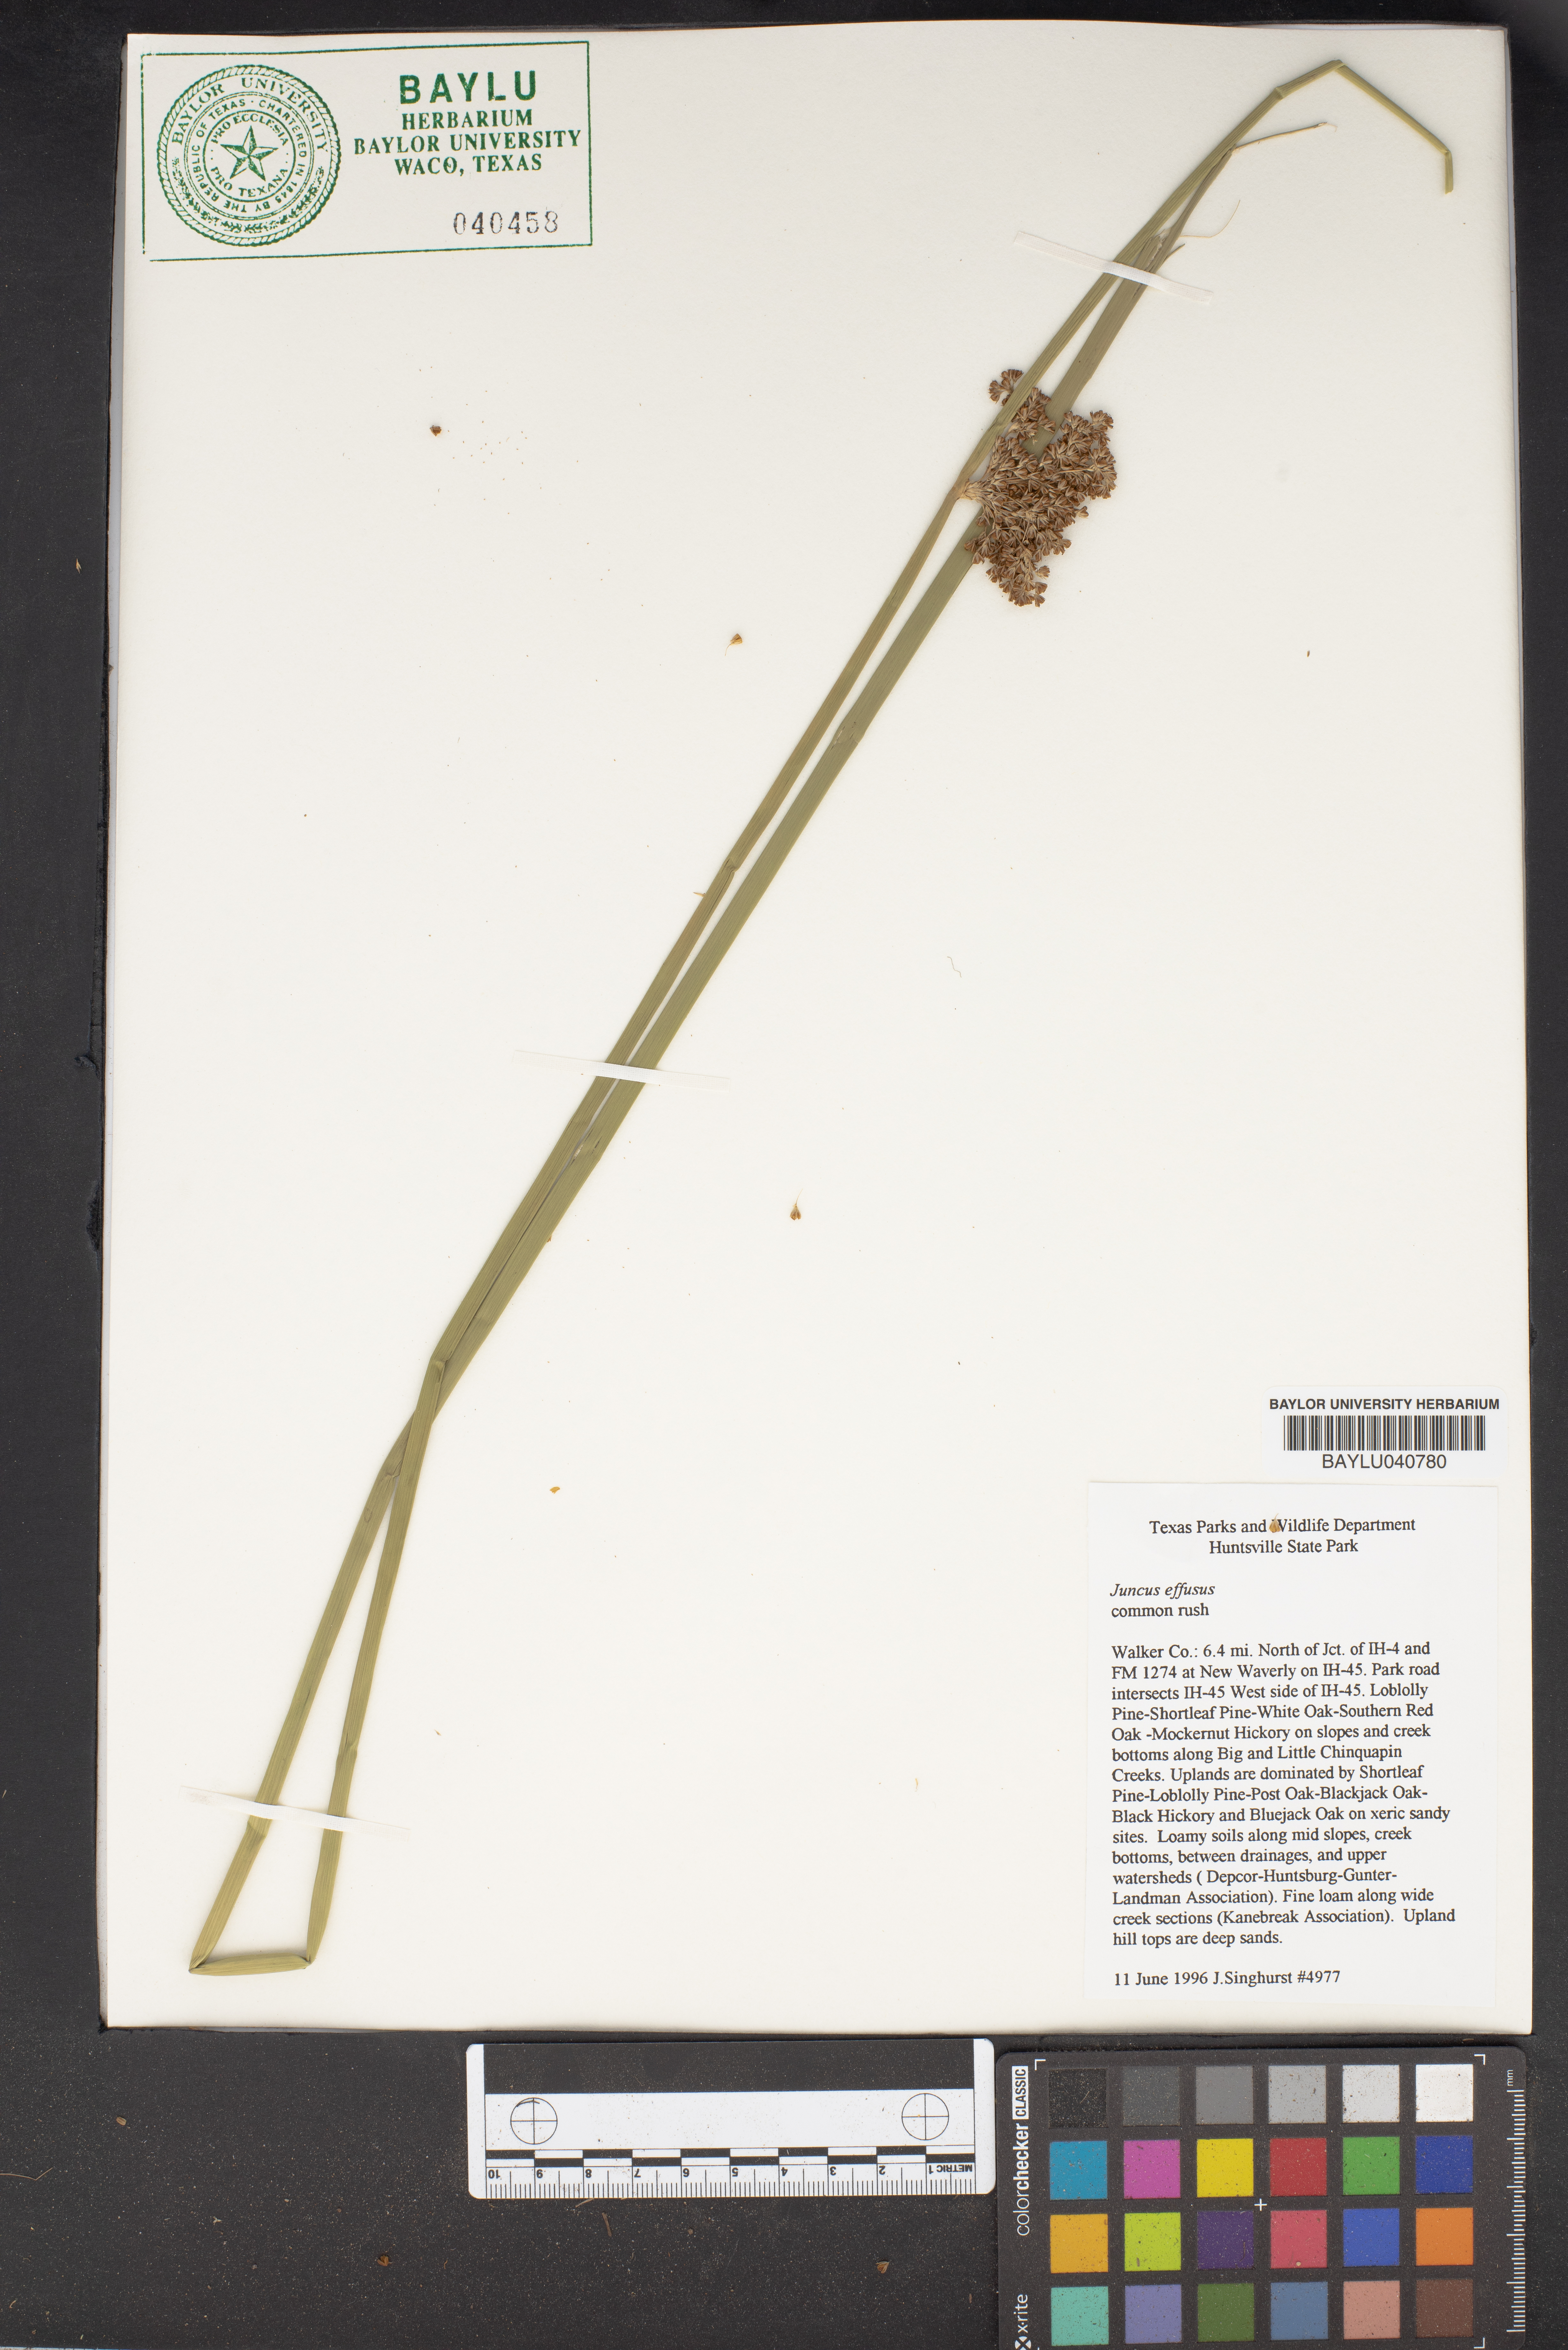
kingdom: Plantae
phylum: Tracheophyta
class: Liliopsida
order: Poales
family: Juncaceae
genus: Juncus
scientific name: Juncus effusus
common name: Soft rush
